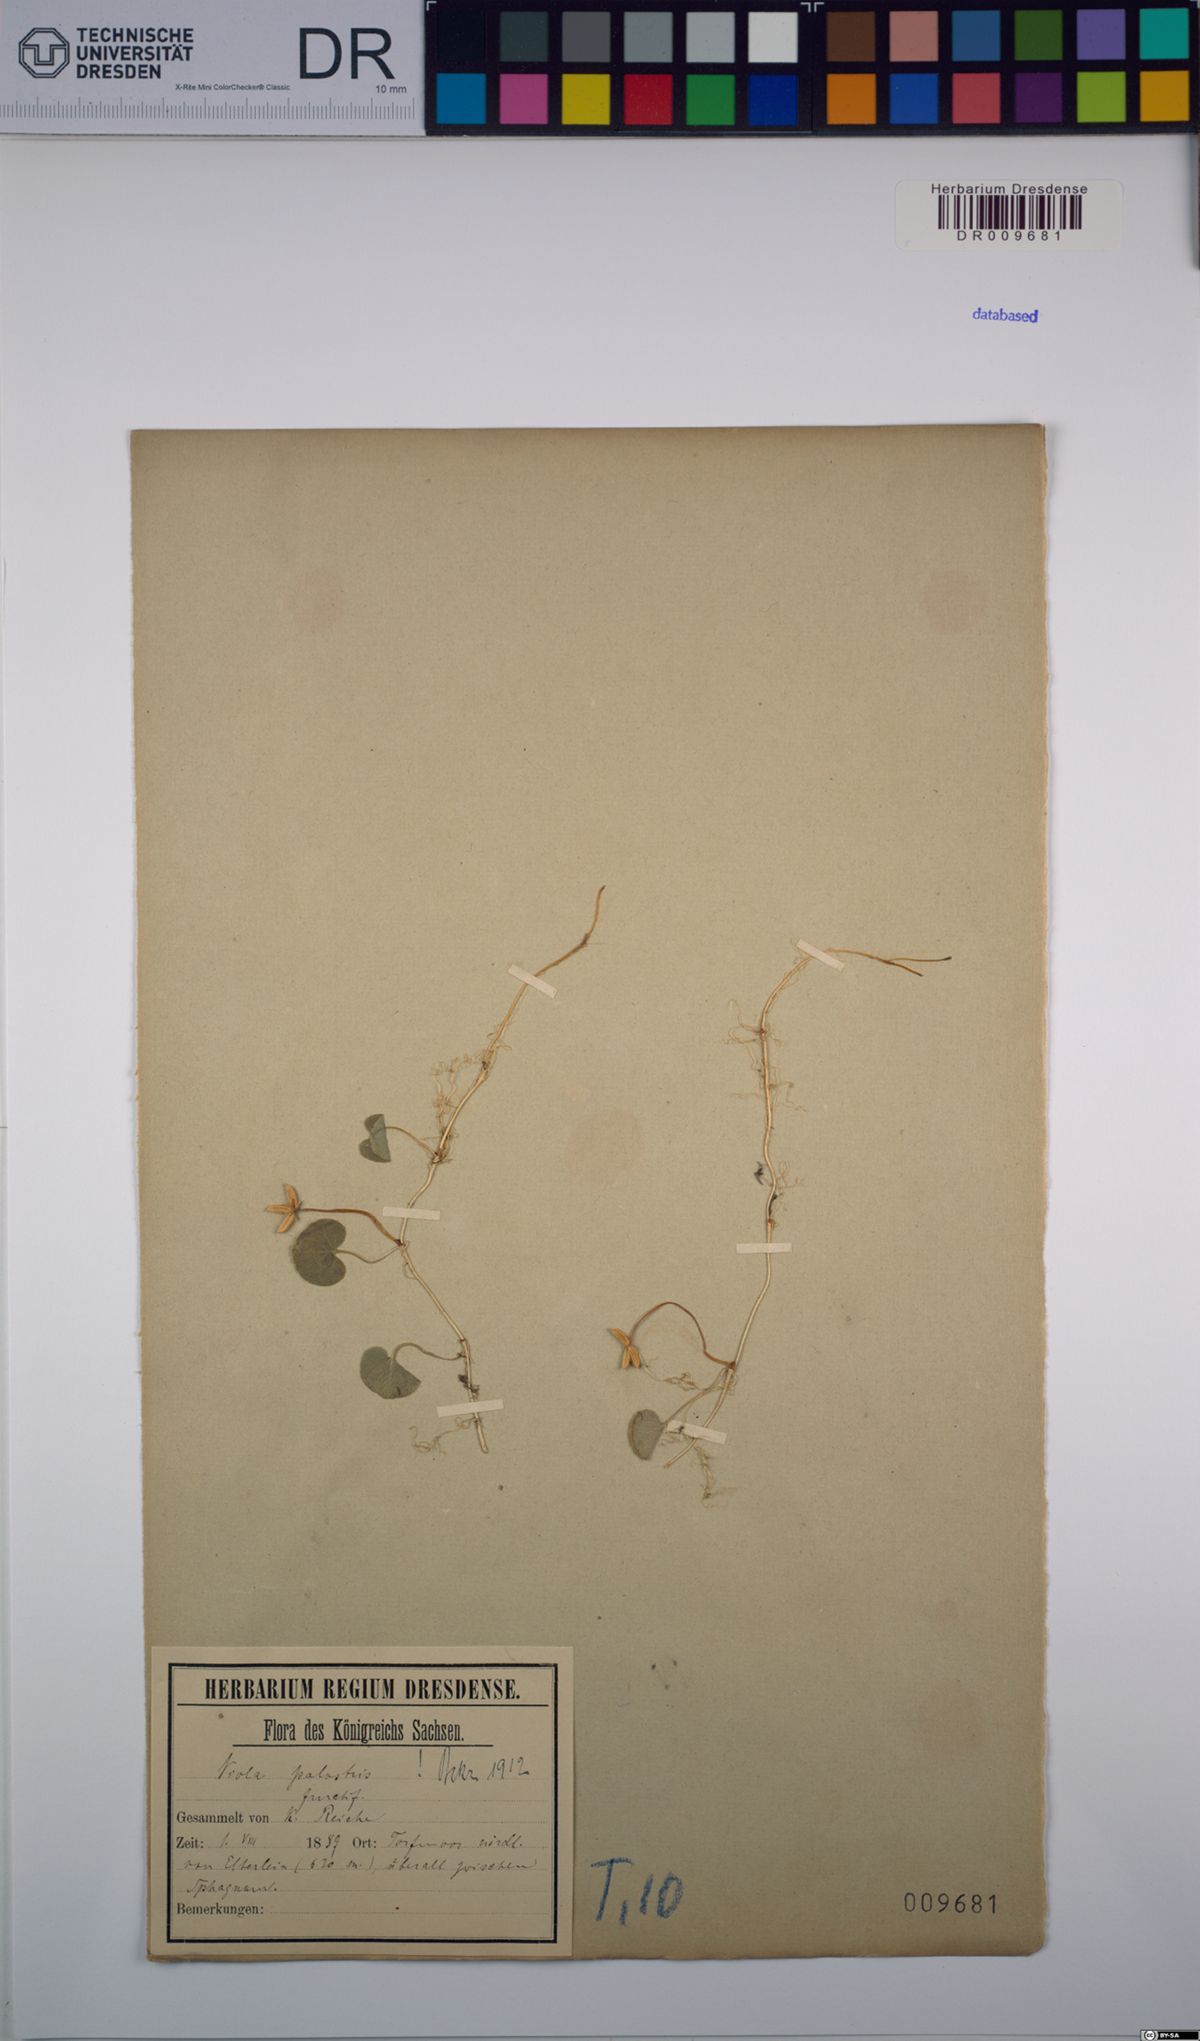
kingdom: Plantae
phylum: Tracheophyta
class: Magnoliopsida
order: Malpighiales
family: Violaceae
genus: Viola
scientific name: Viola palustris
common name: Marsh violet
